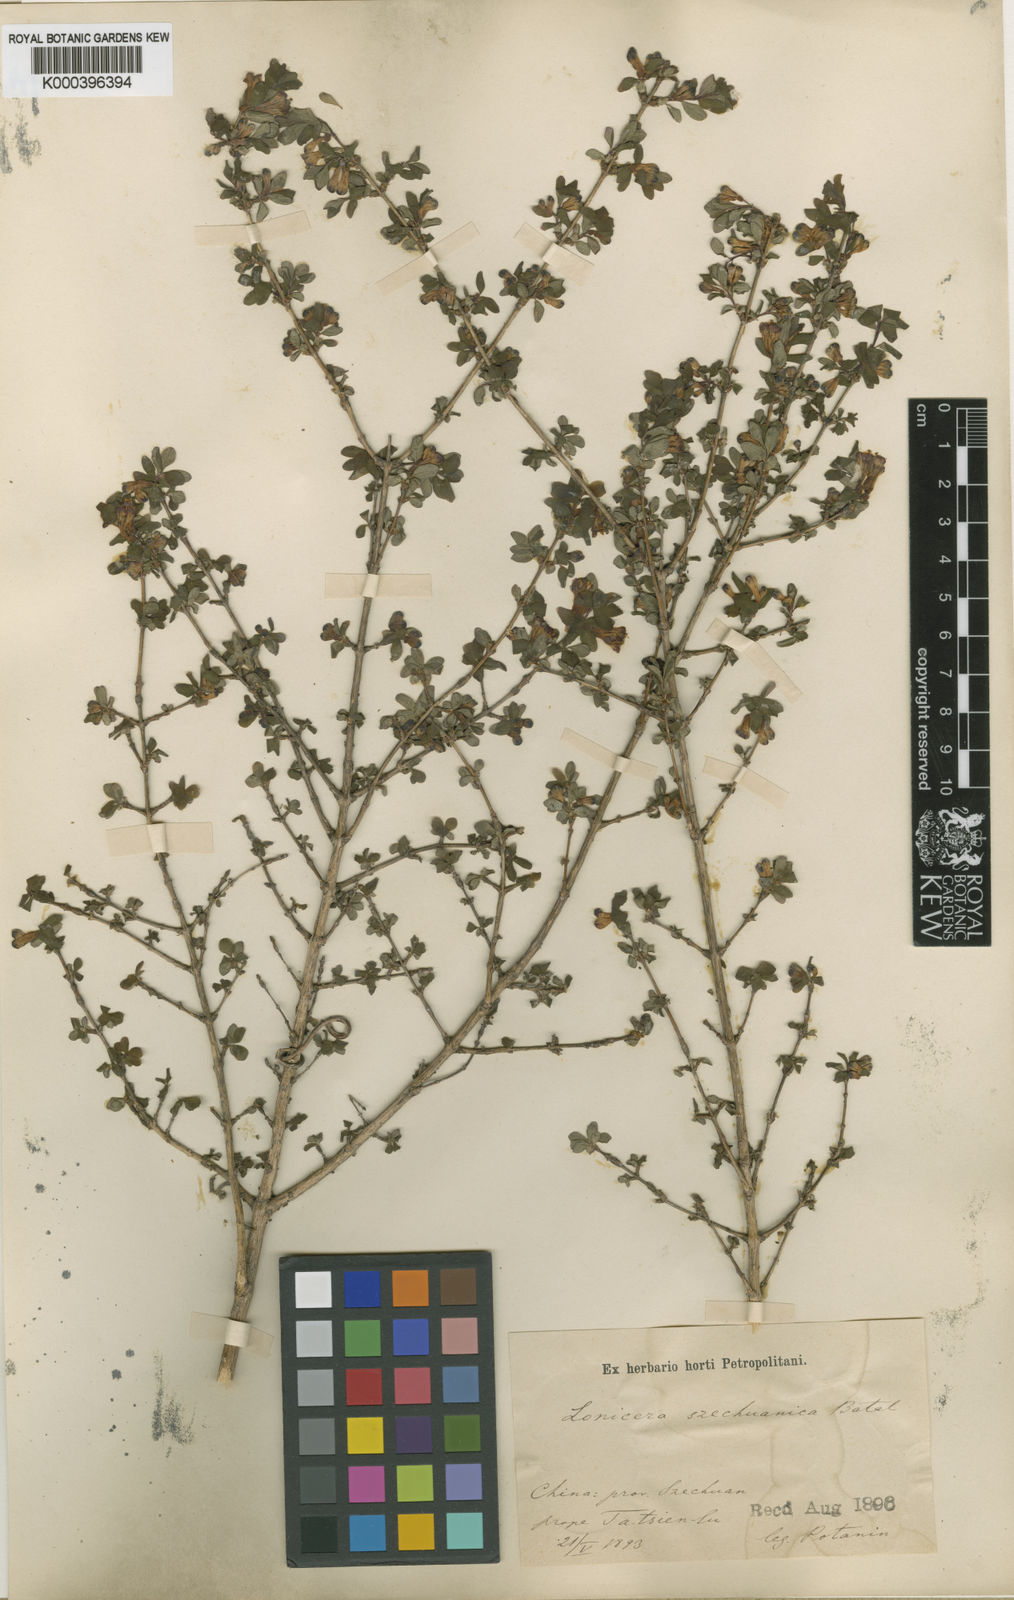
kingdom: Plantae
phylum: Tracheophyta
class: Magnoliopsida
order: Dipsacales
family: Caprifoliaceae
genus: Lonicera
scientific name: Lonicera tangutica
